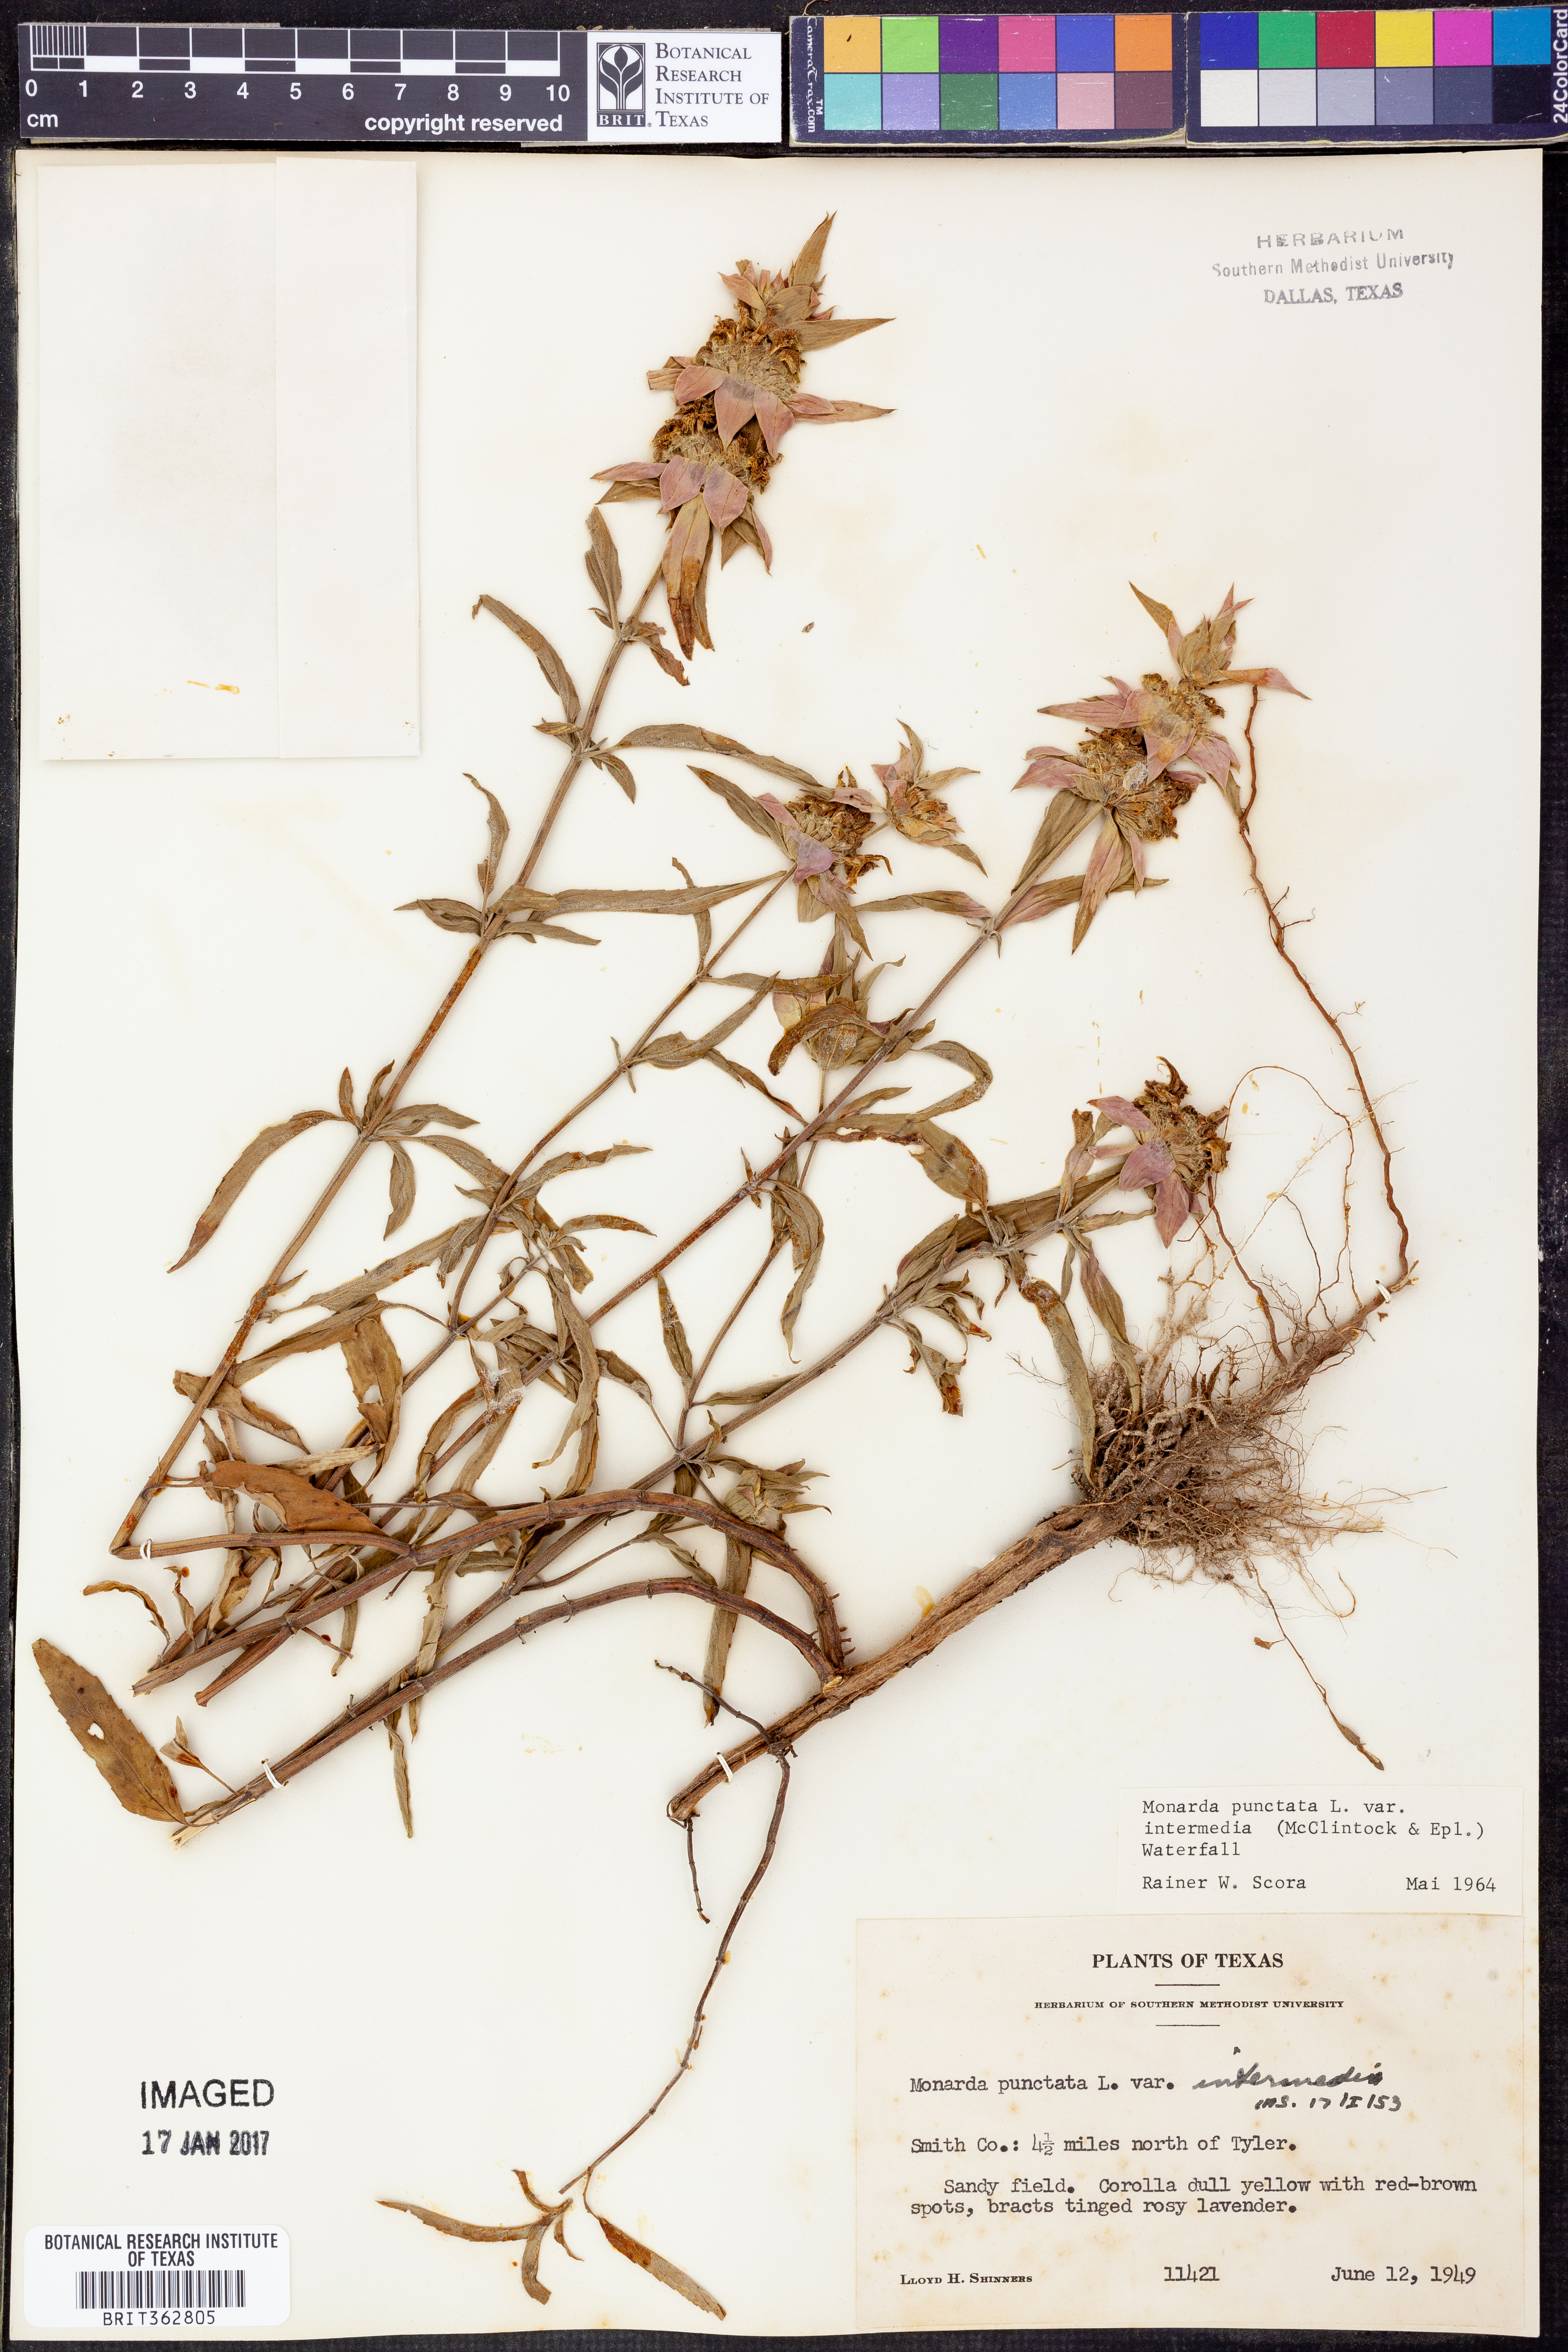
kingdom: Plantae
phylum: Tracheophyta
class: Magnoliopsida
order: Lamiales
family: Lamiaceae
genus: Monarda
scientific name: Monarda punctata
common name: Dotted monarda
